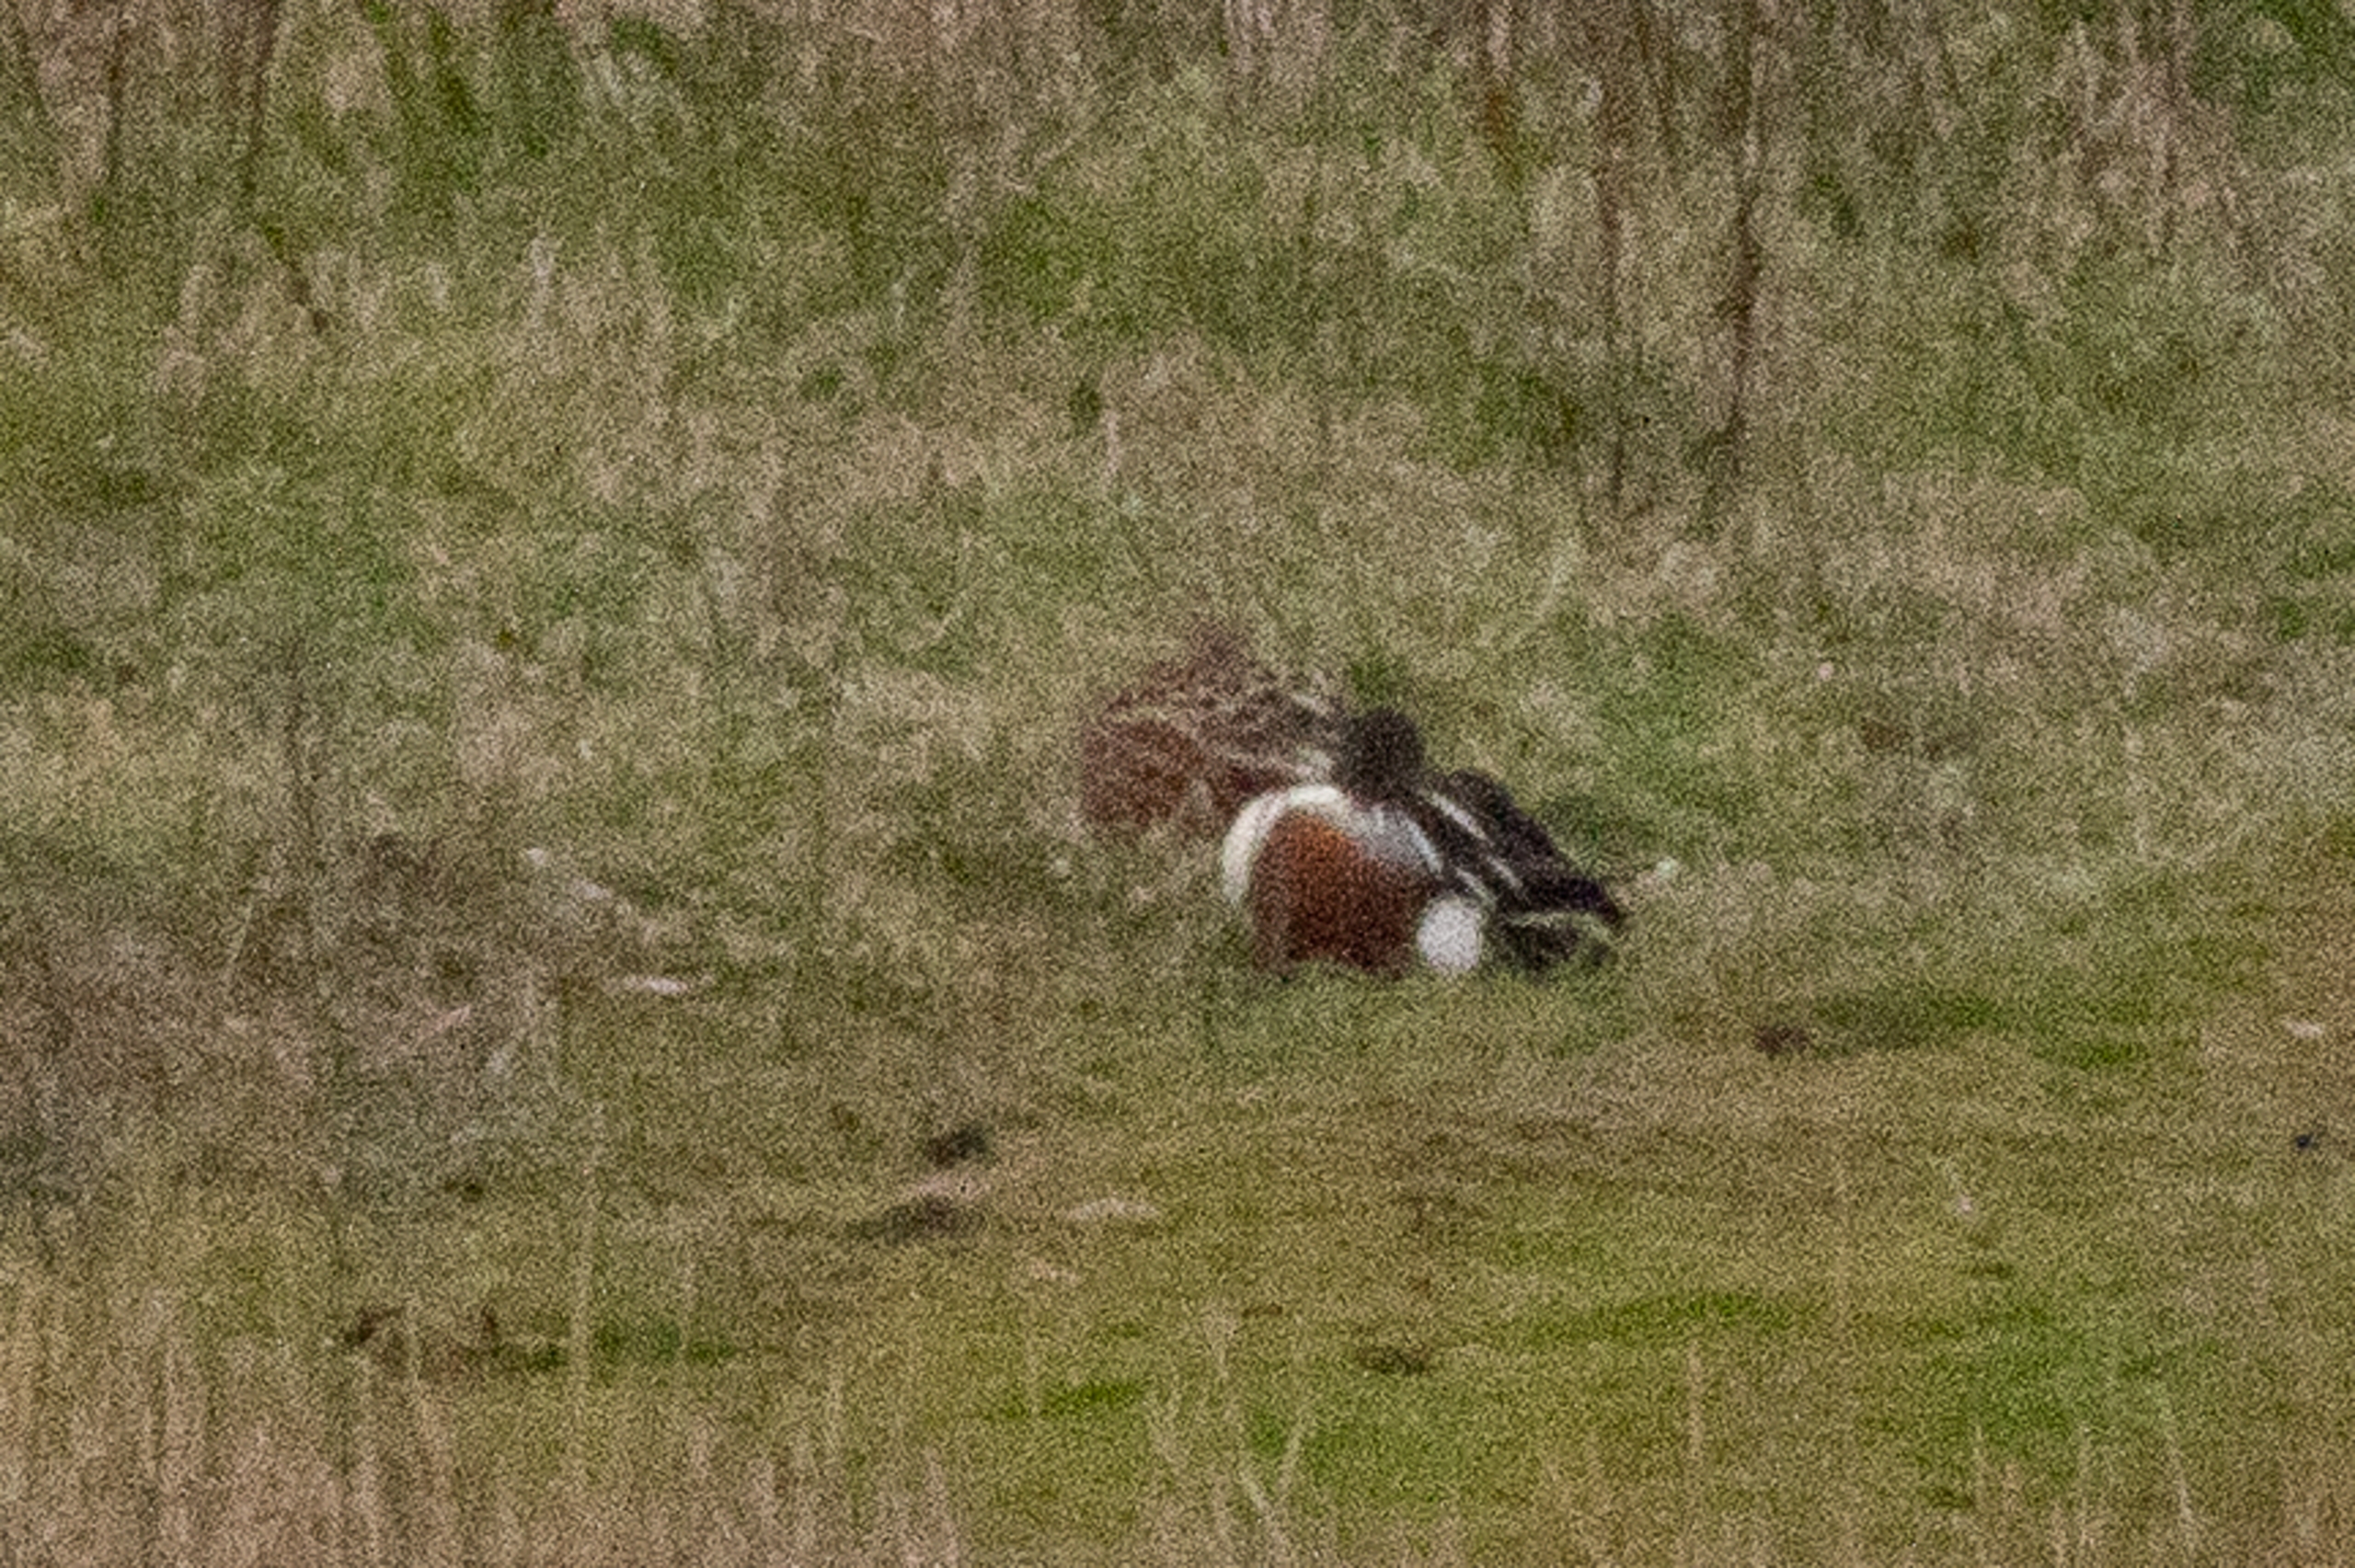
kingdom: Animalia
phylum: Chordata
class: Aves
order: Anseriformes
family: Anatidae
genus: Spatula
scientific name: Spatula clypeata
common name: Skeand
